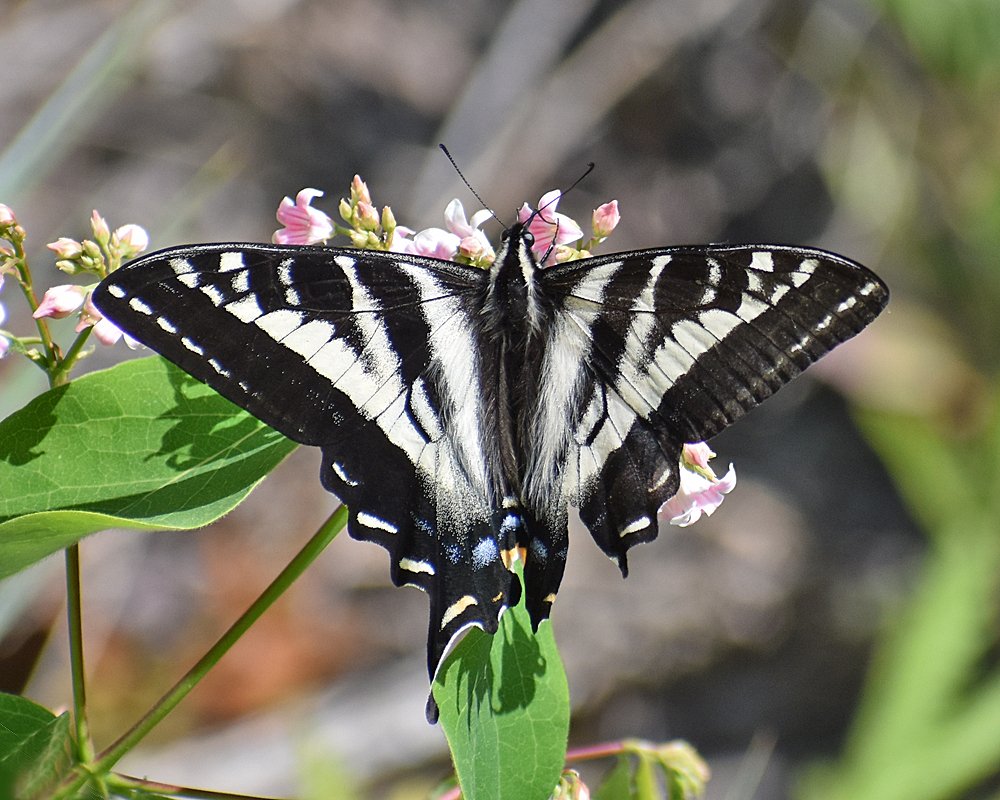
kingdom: Animalia
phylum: Arthropoda
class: Insecta
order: Lepidoptera
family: Papilionidae
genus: Pterourus
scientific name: Pterourus eurymedon
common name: Pale Swallowtail
